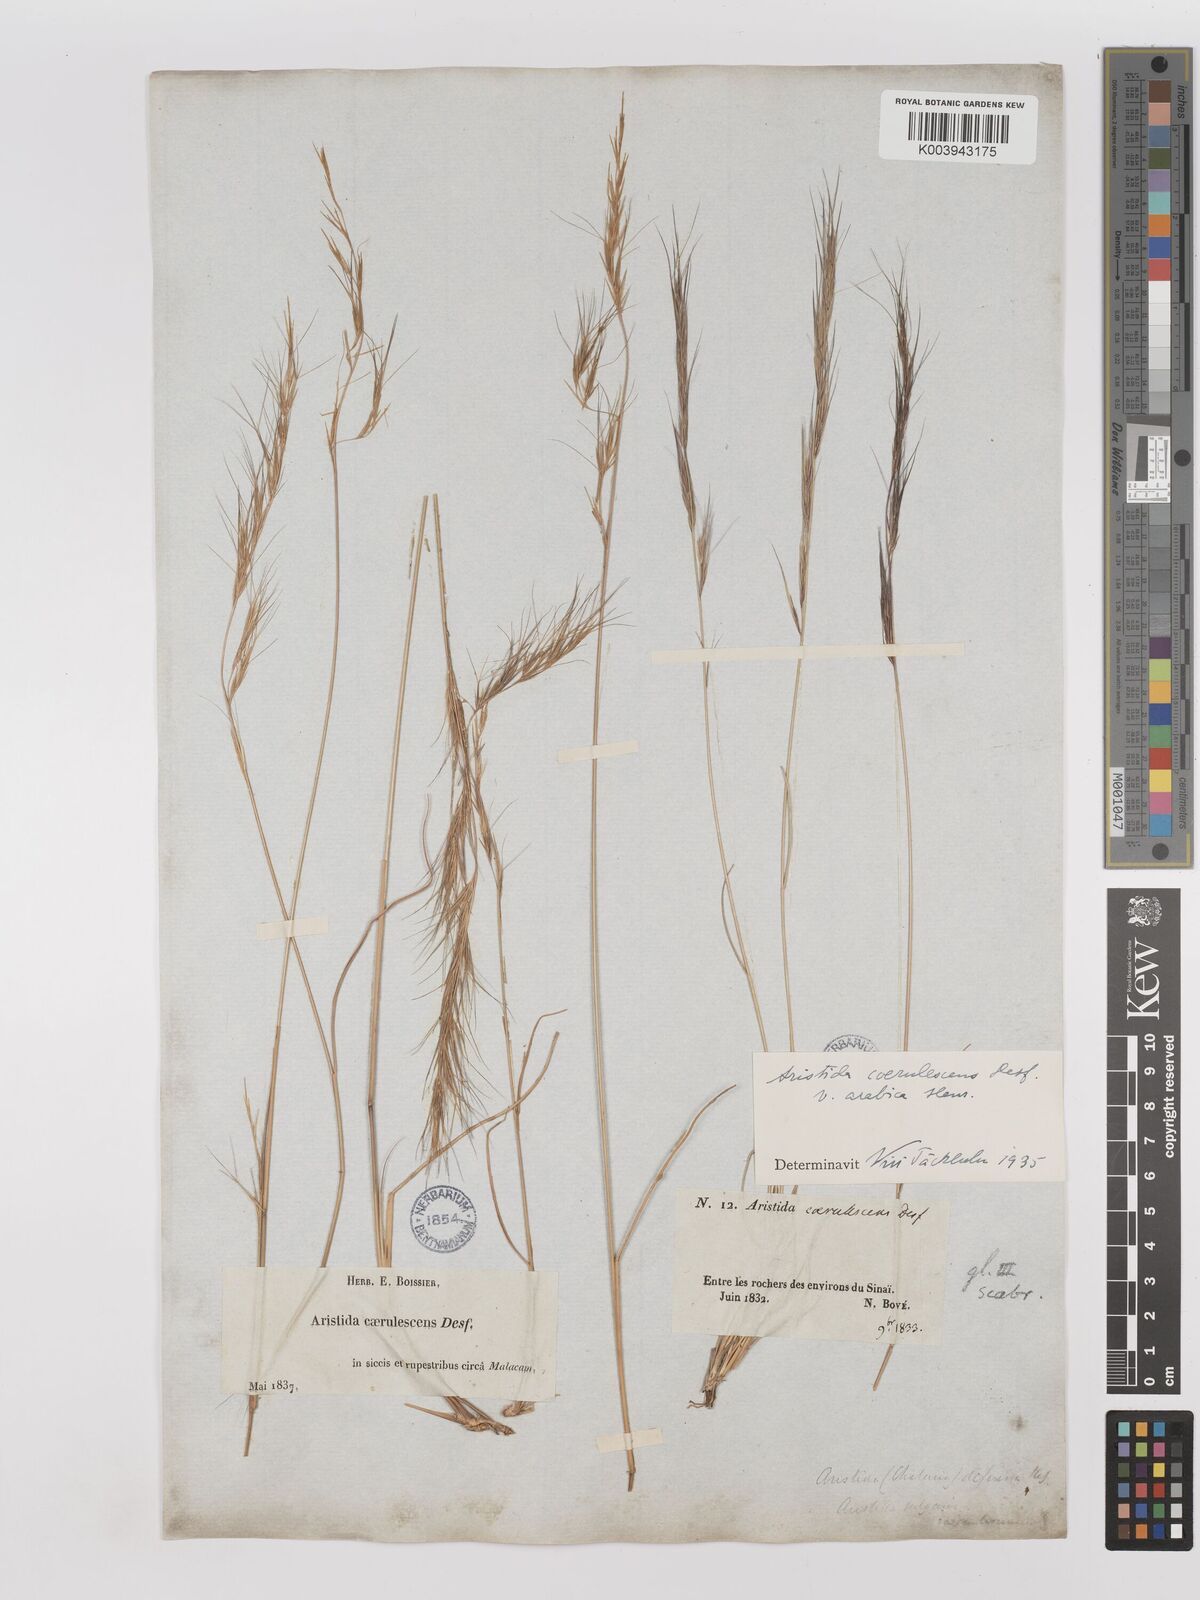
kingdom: Plantae
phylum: Tracheophyta
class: Liliopsida
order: Poales
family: Poaceae
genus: Aristida
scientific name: Aristida adscensionis
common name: Sixweeks threeawn
